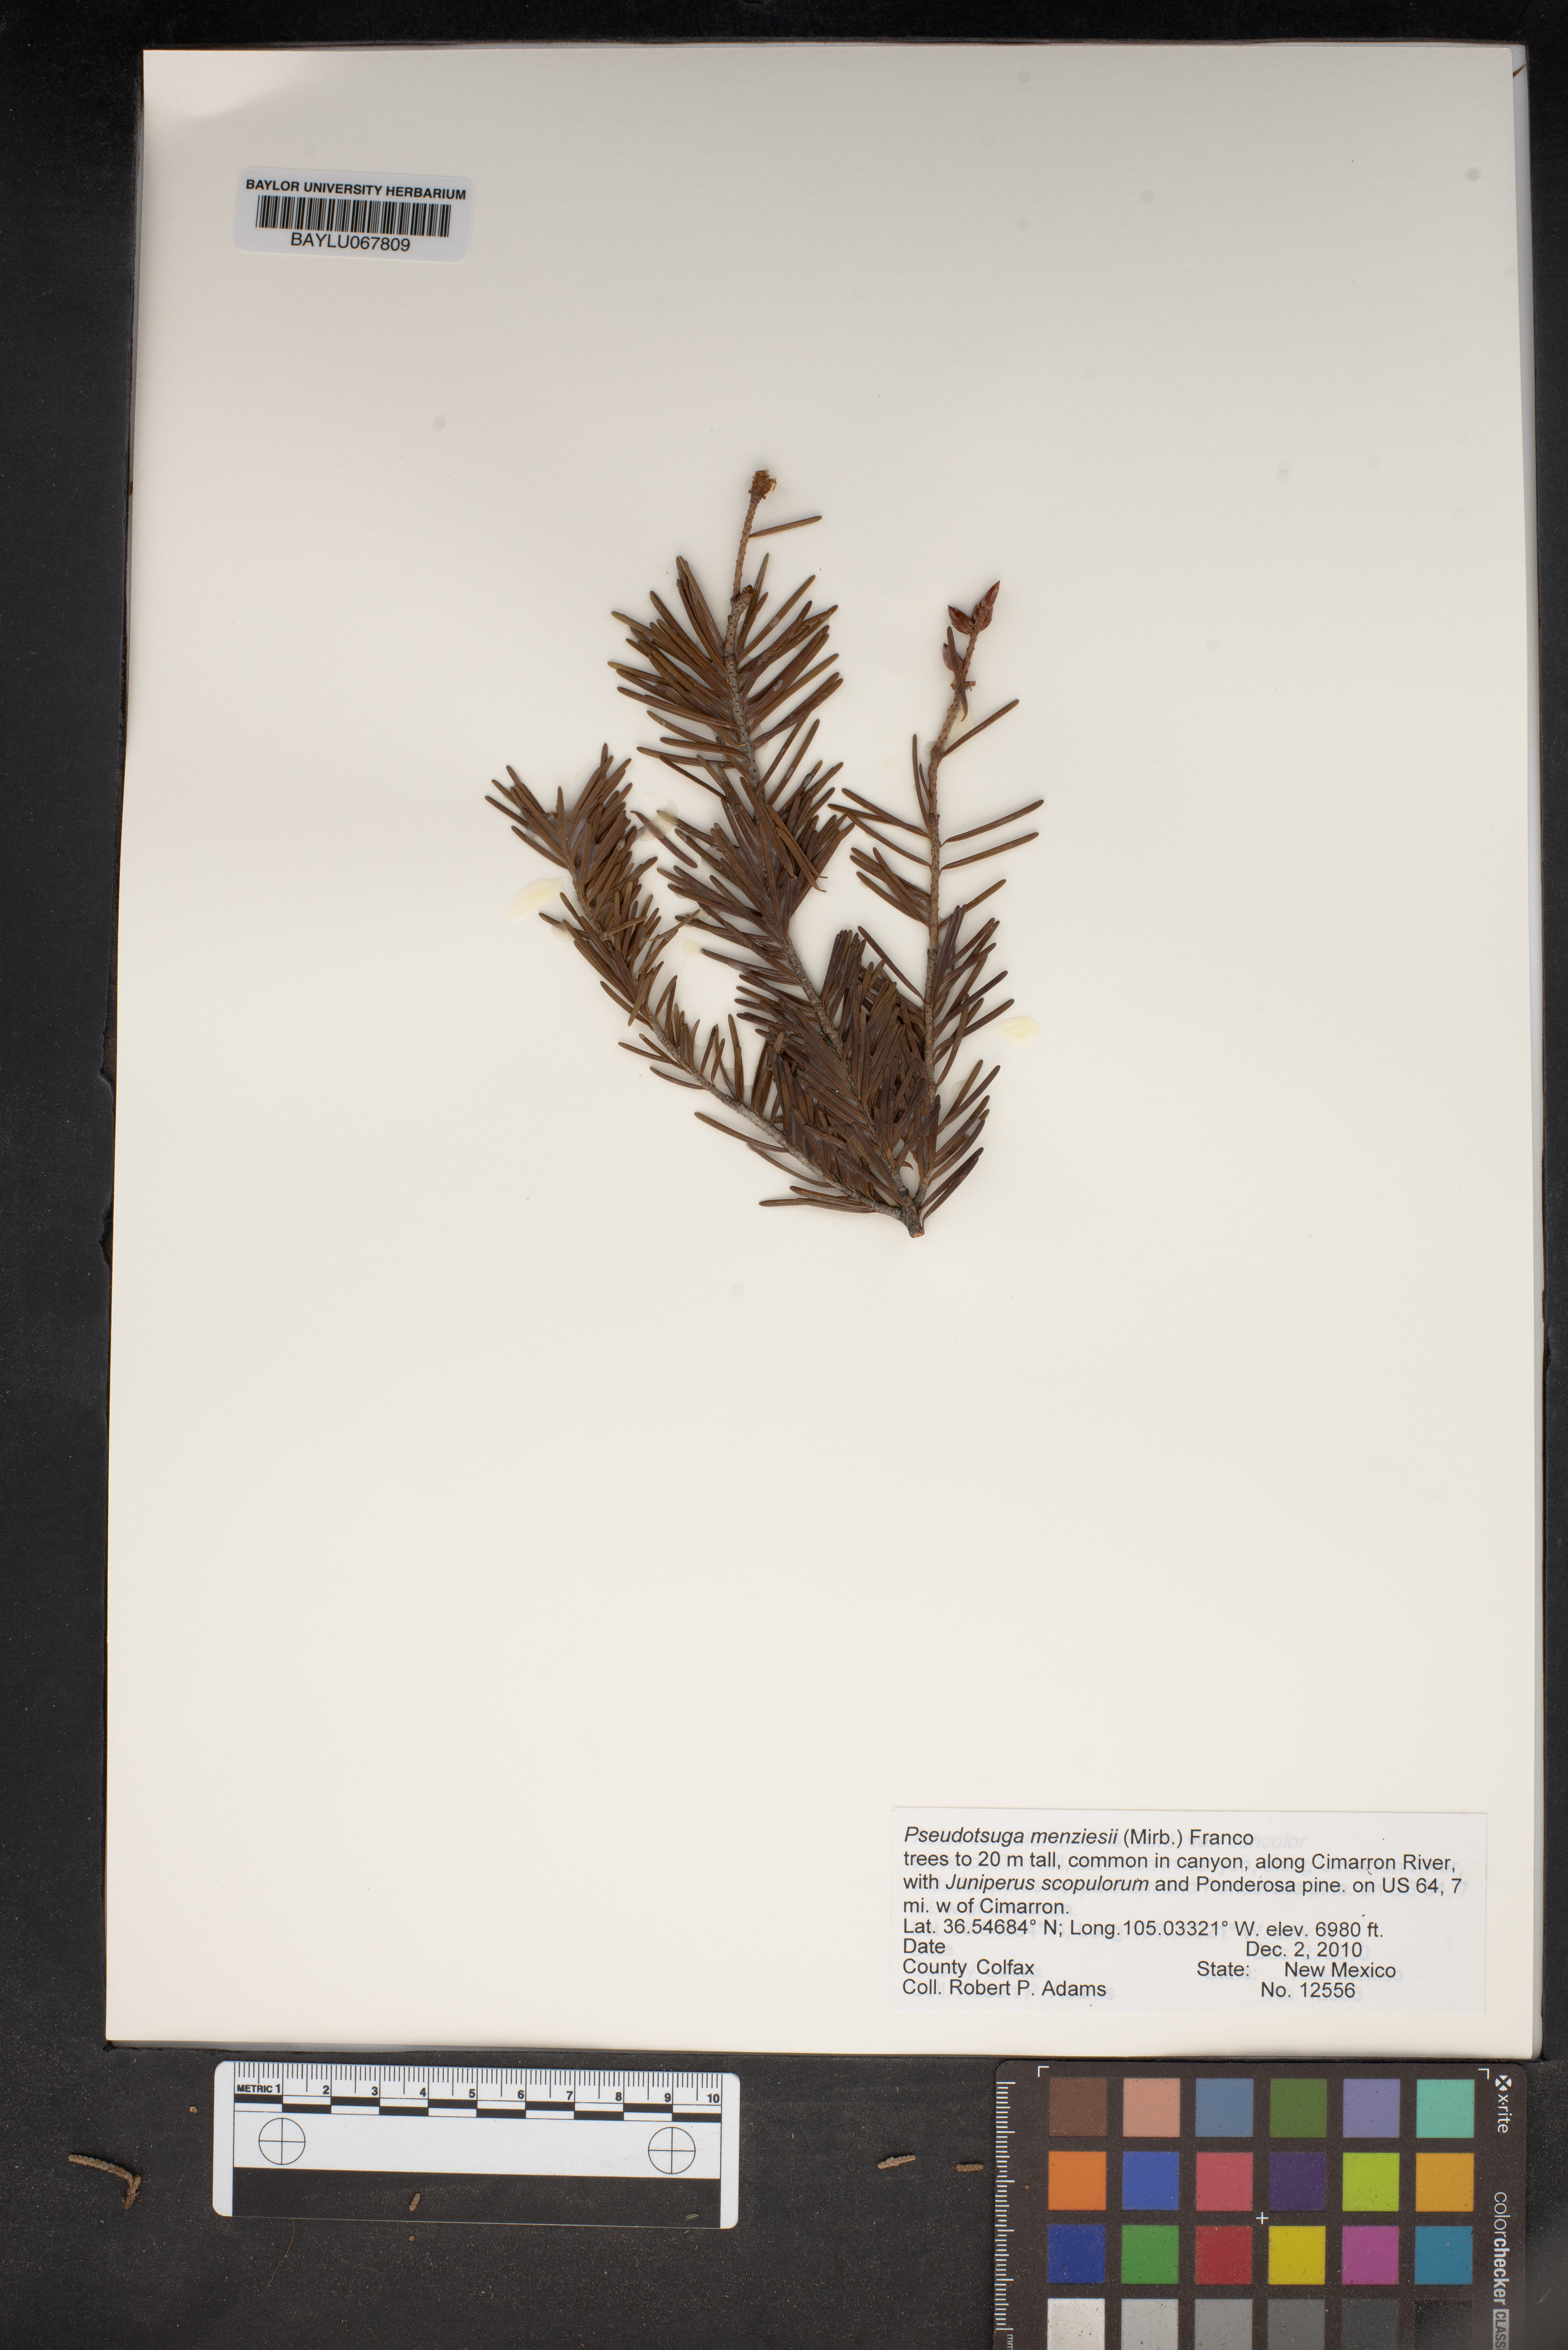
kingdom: Plantae
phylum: Tracheophyta
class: Pinopsida
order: Pinales
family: Pinaceae
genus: Pseudotsuga
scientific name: Pseudotsuga menziesii
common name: Douglas fir
